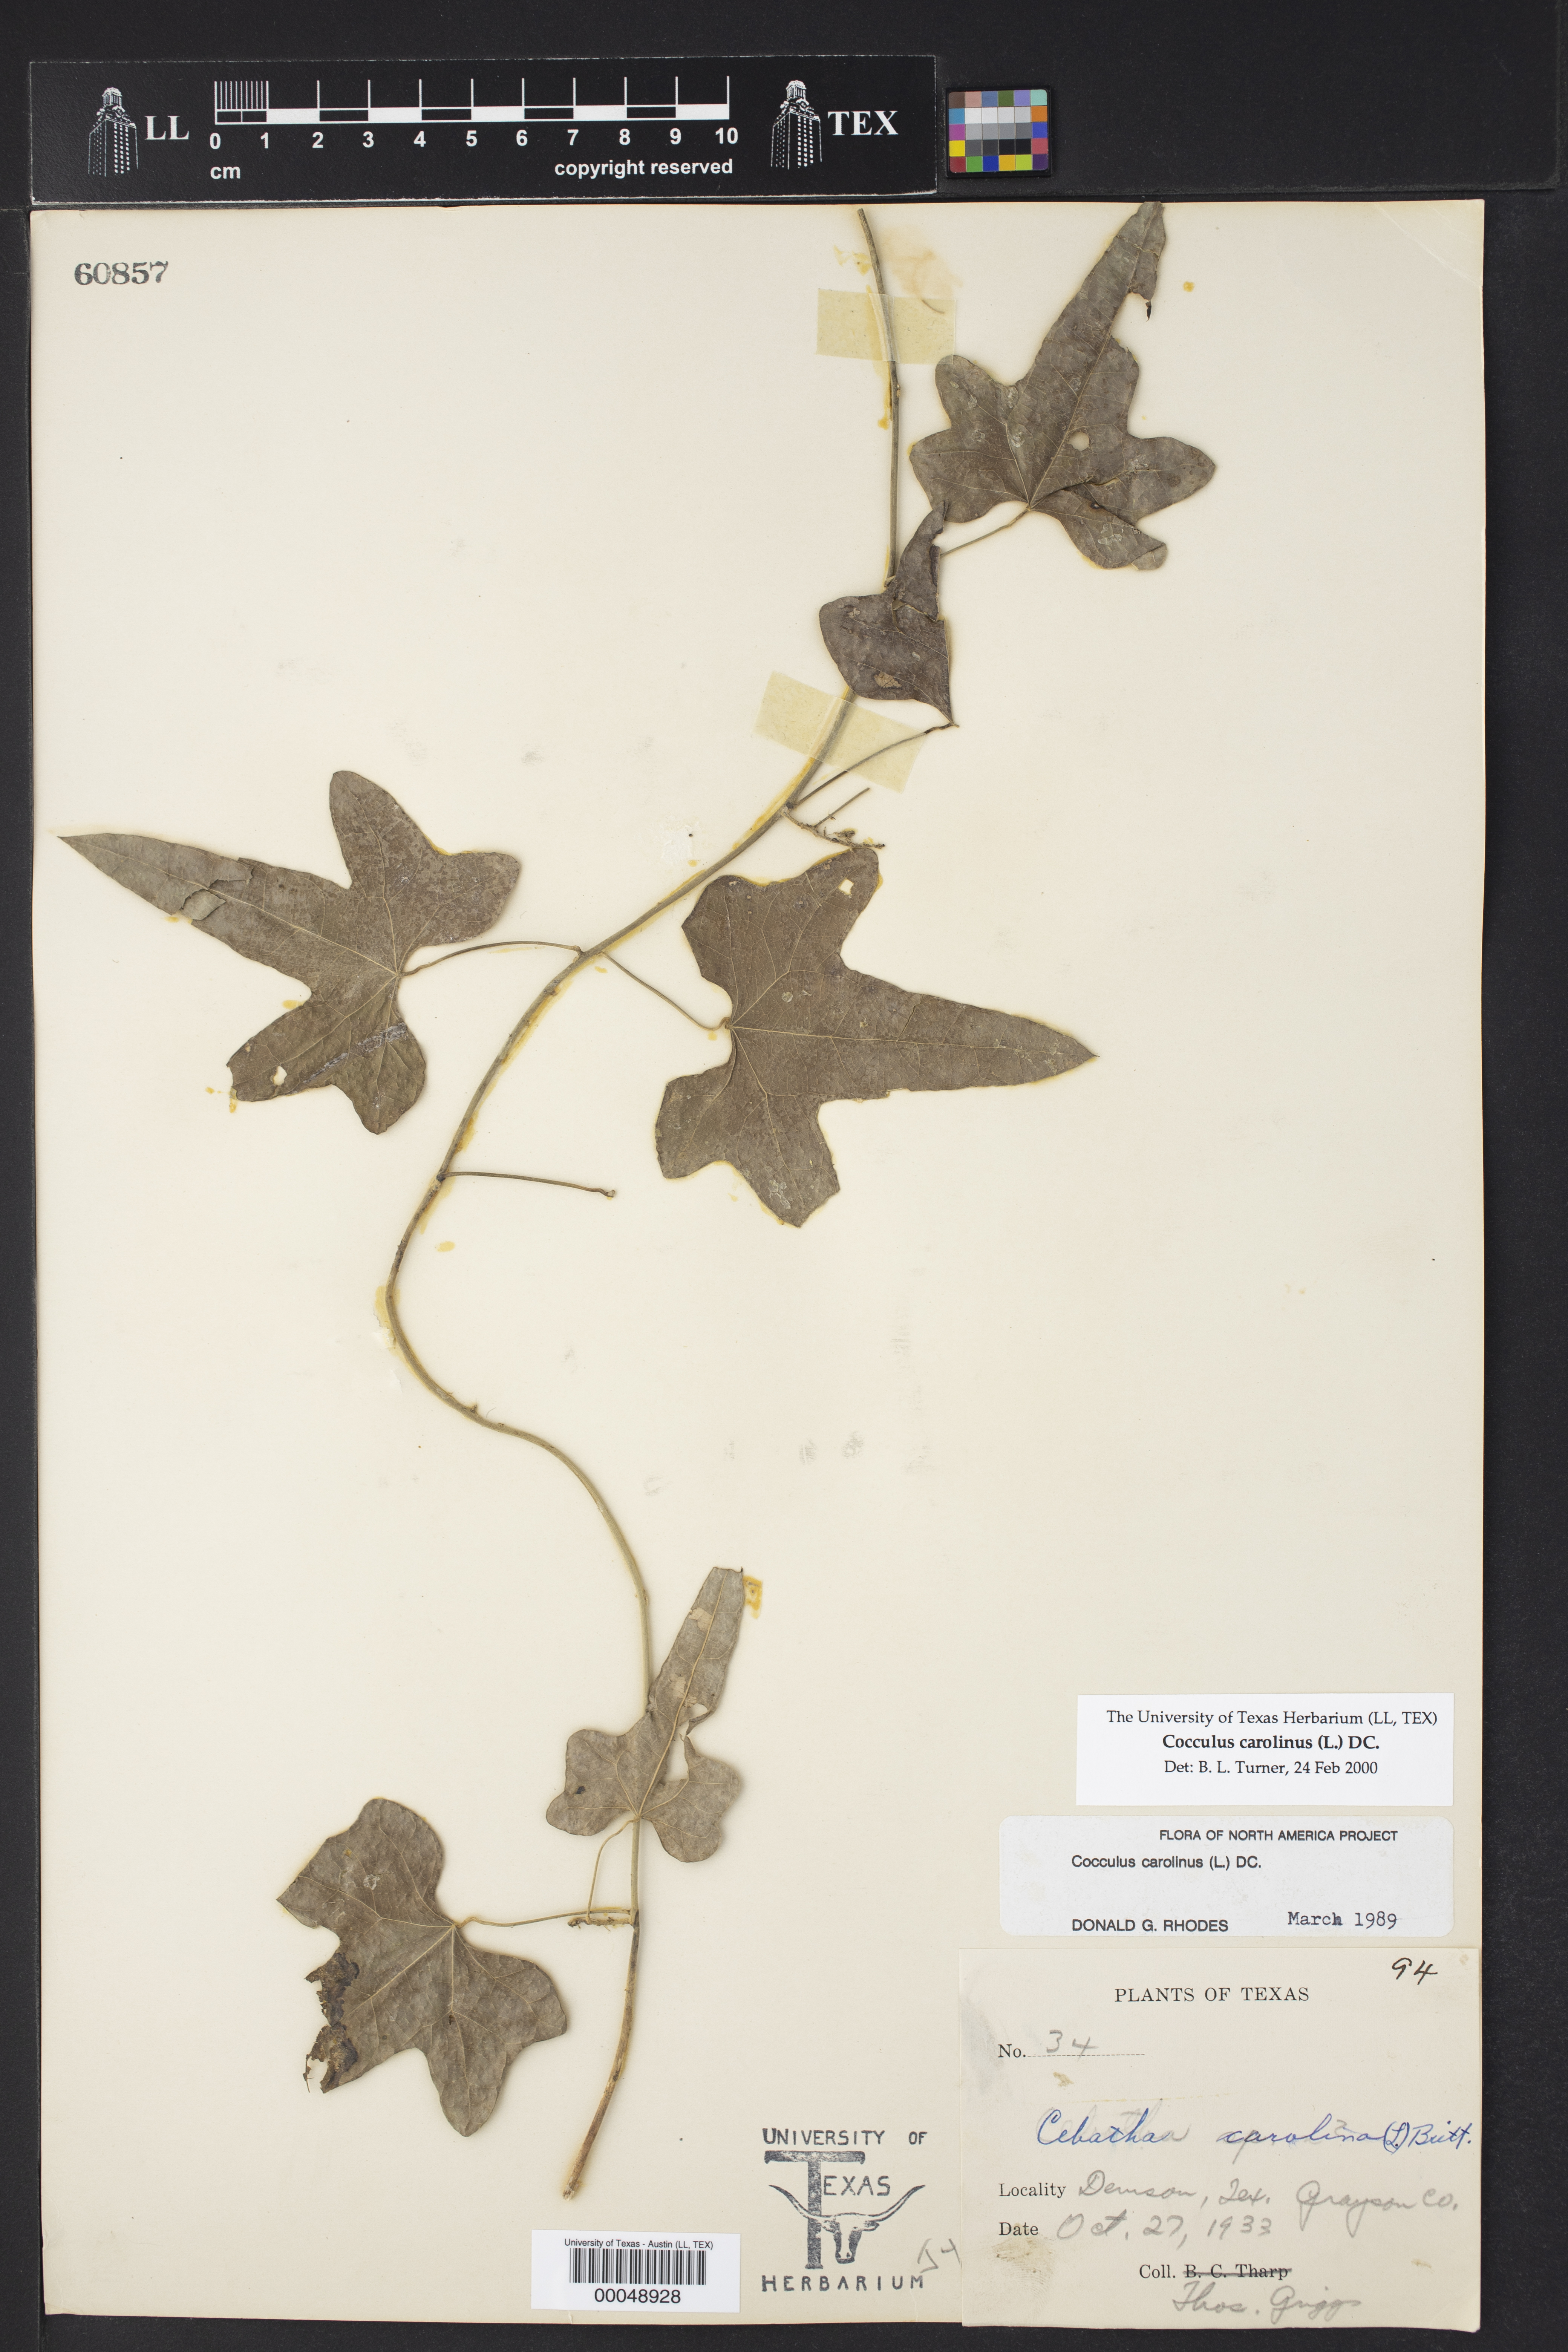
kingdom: Plantae
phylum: Tracheophyta
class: Magnoliopsida
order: Ranunculales
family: Menispermaceae
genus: Cocculus
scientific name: Cocculus carolinus
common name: Carolina moonseed
